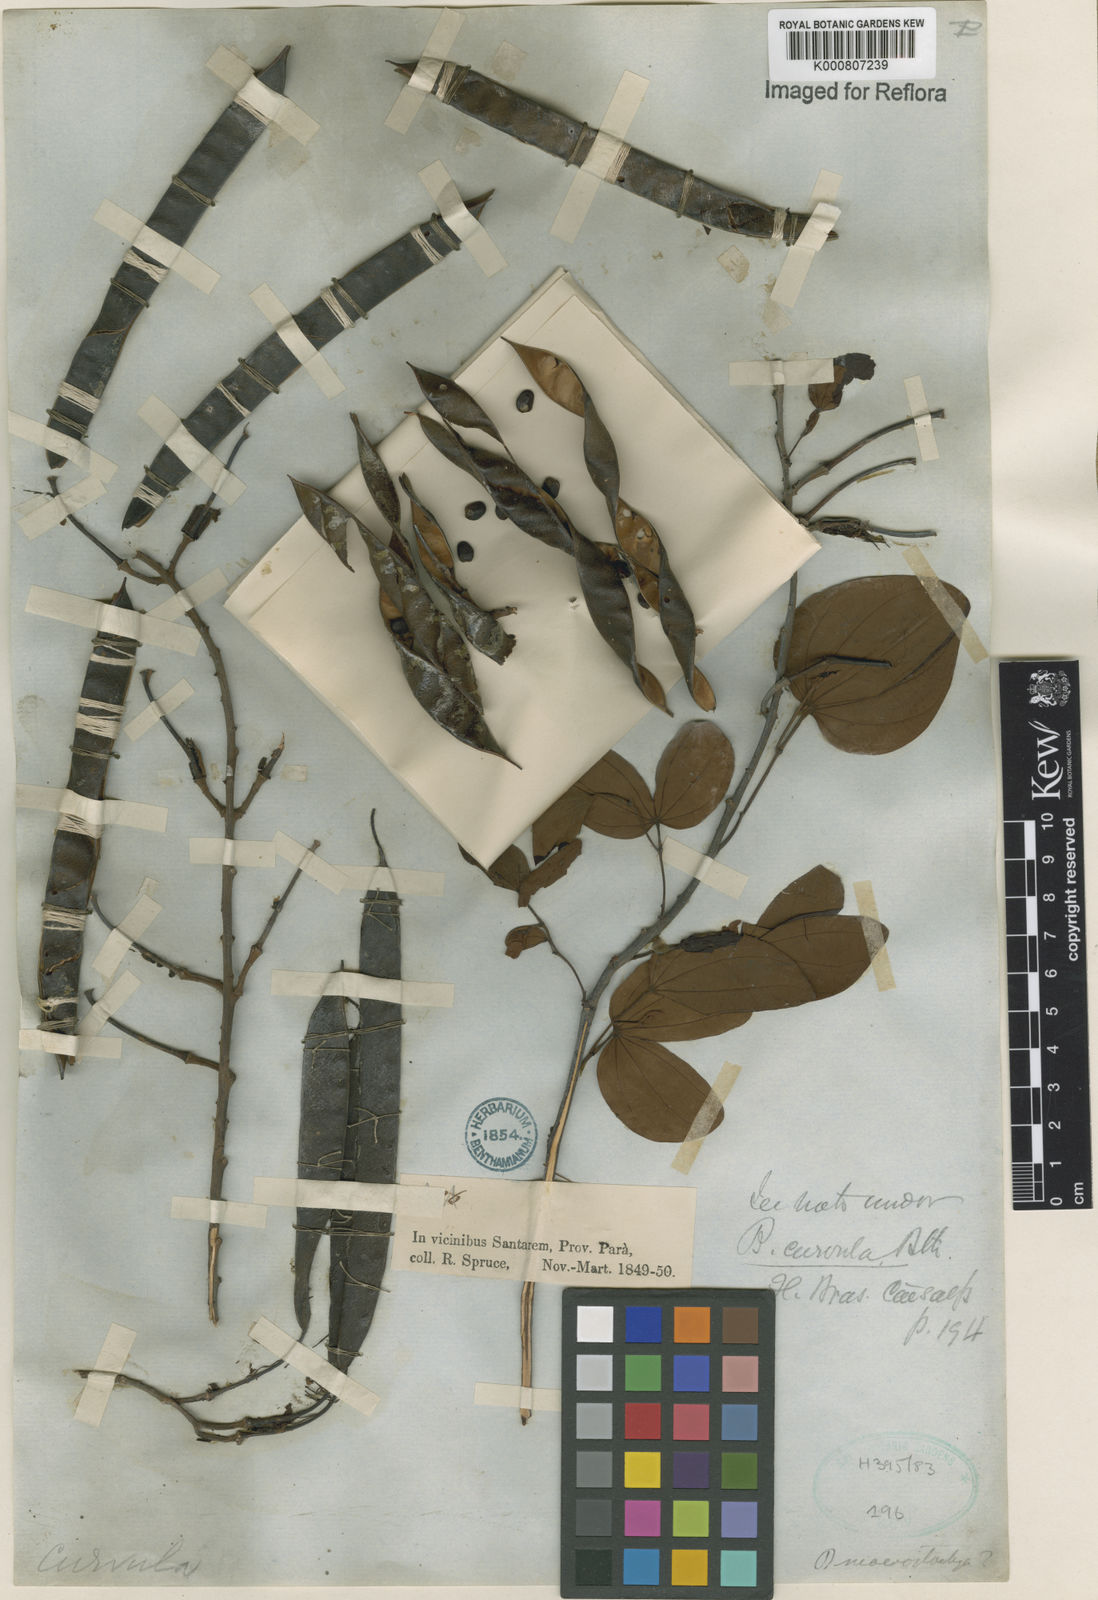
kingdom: Plantae
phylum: Tracheophyta
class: Magnoliopsida
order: Fabales
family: Fabaceae
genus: Bauhinia
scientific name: Bauhinia curvula
